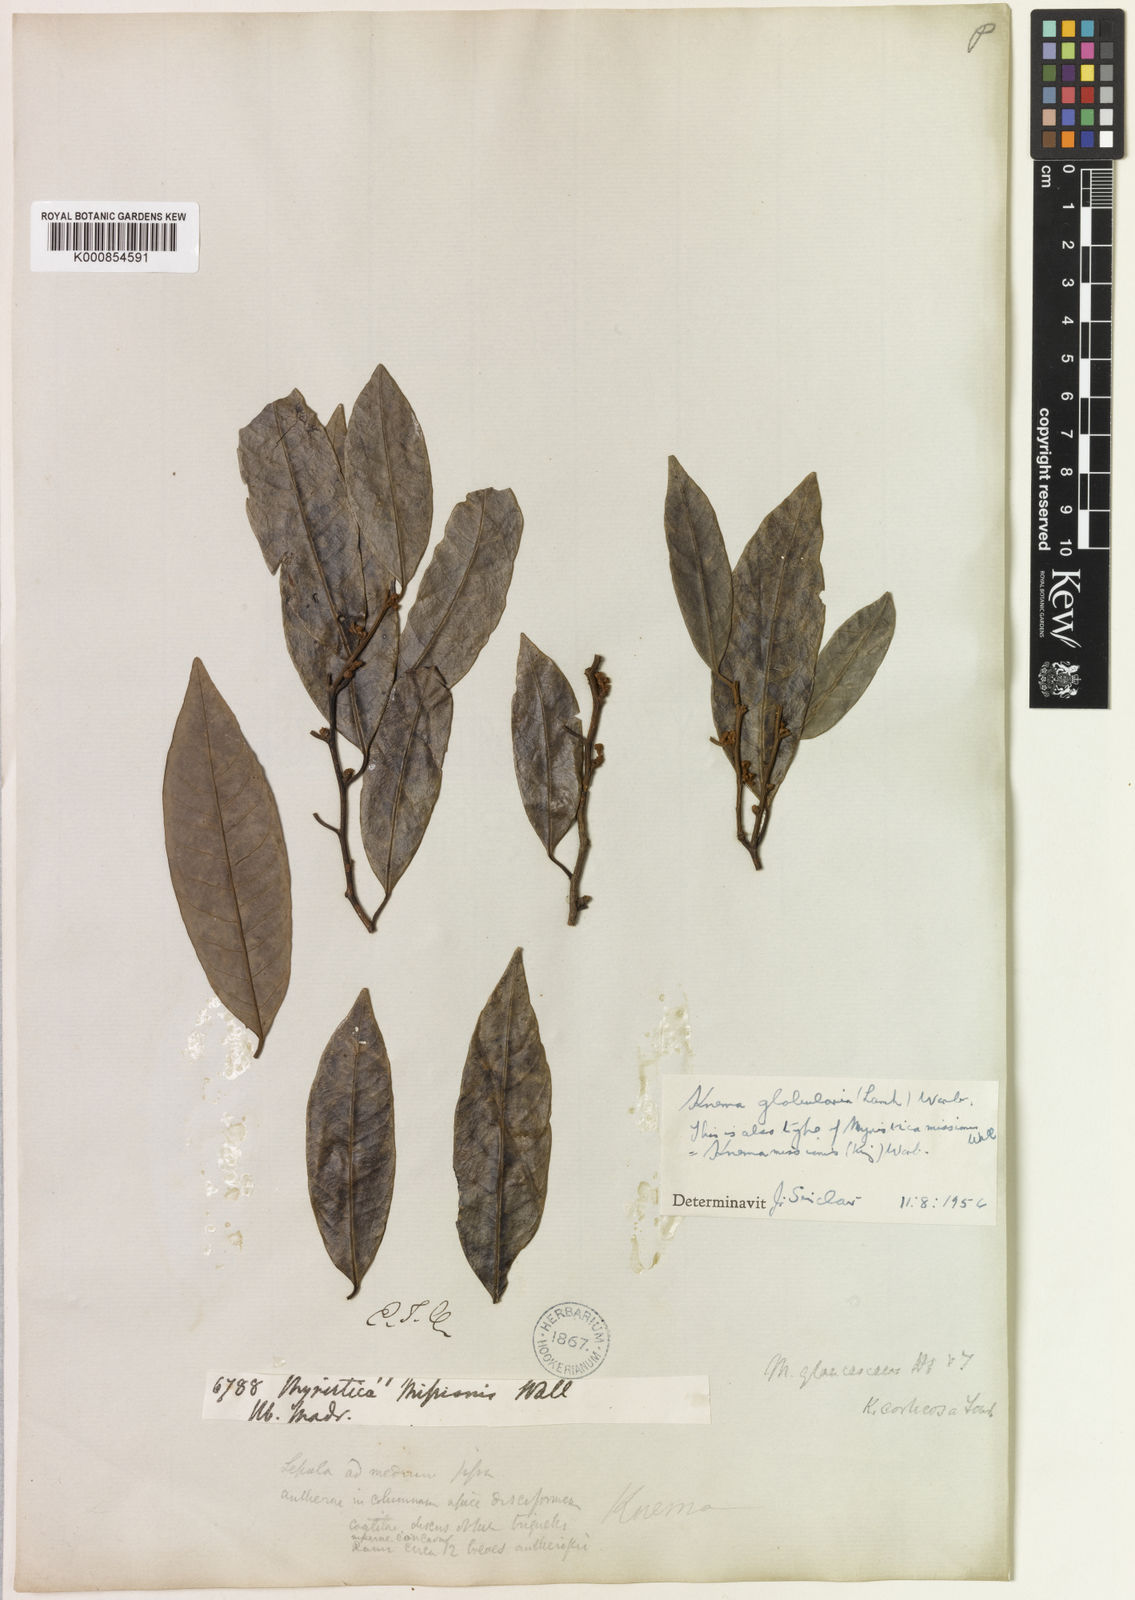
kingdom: Plantae
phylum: Tracheophyta
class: Magnoliopsida
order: Magnoliales
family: Myristicaceae
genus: Knema
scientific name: Knema globularia
